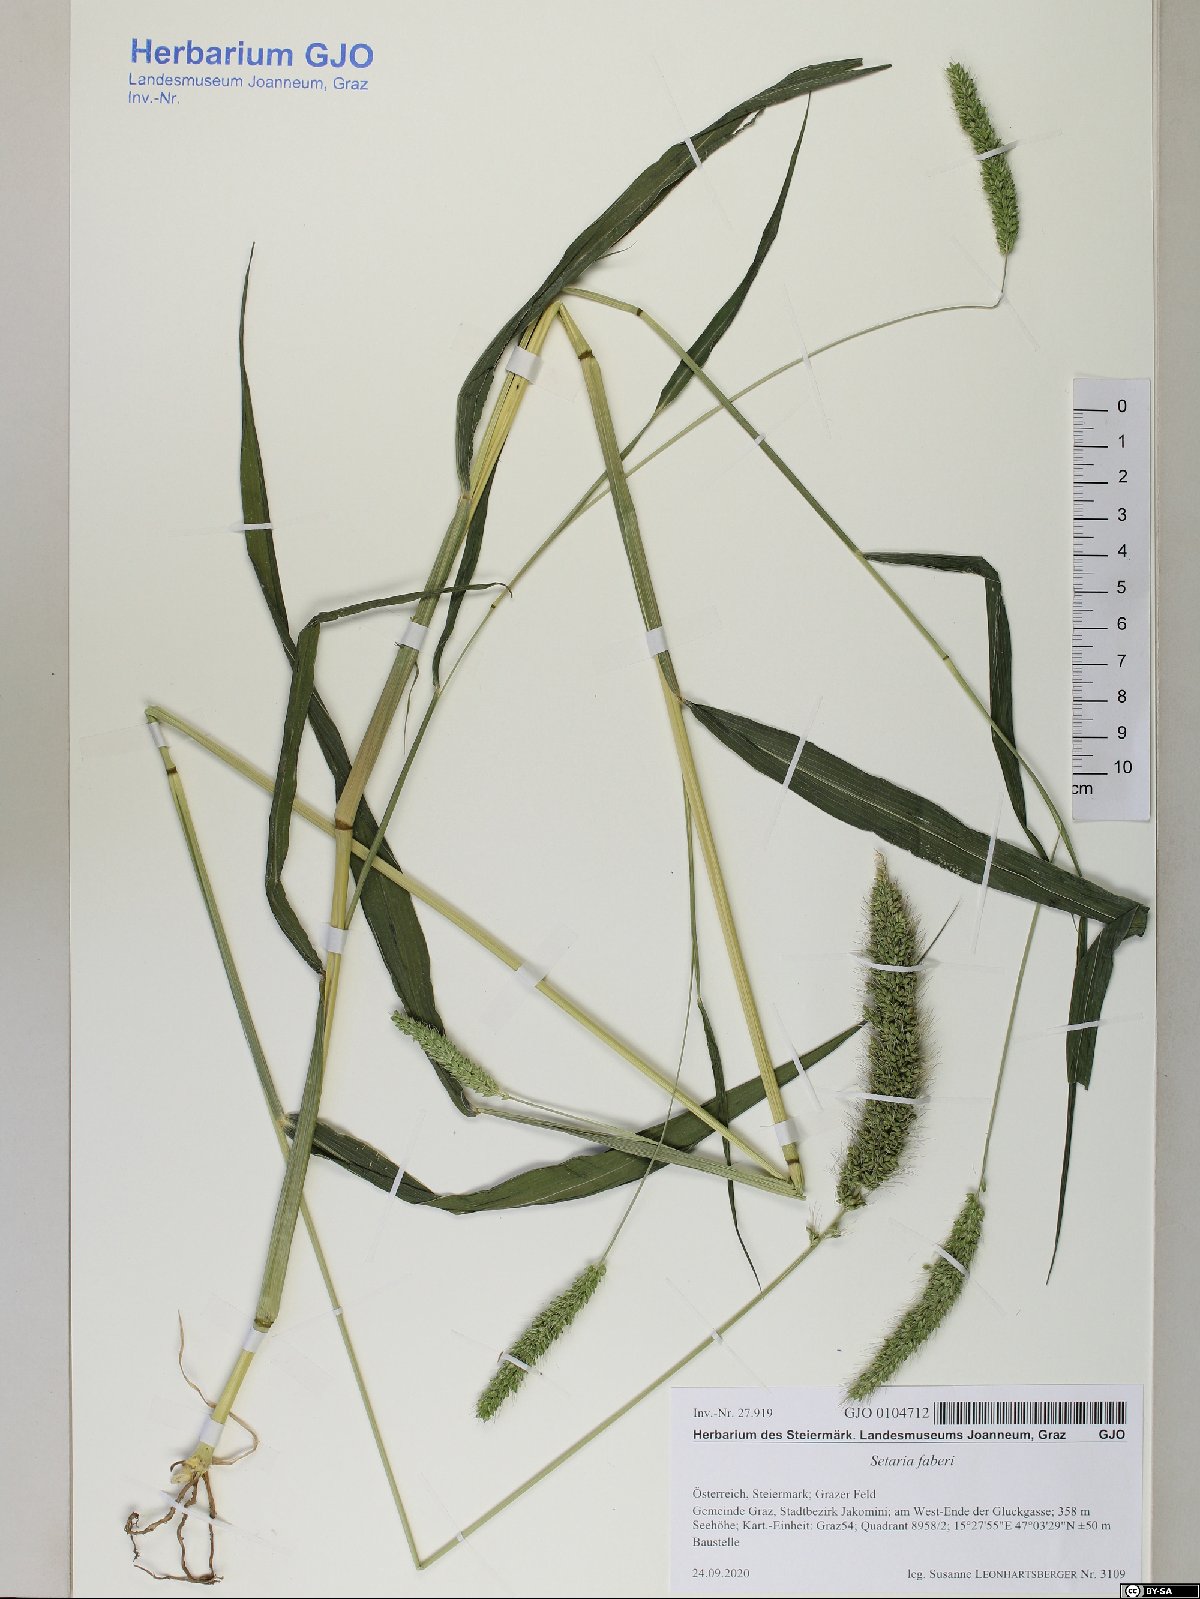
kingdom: Plantae
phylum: Tracheophyta
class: Liliopsida
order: Poales
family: Poaceae
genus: Setaria
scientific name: Setaria faberi
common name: Nodding bristle-grass
